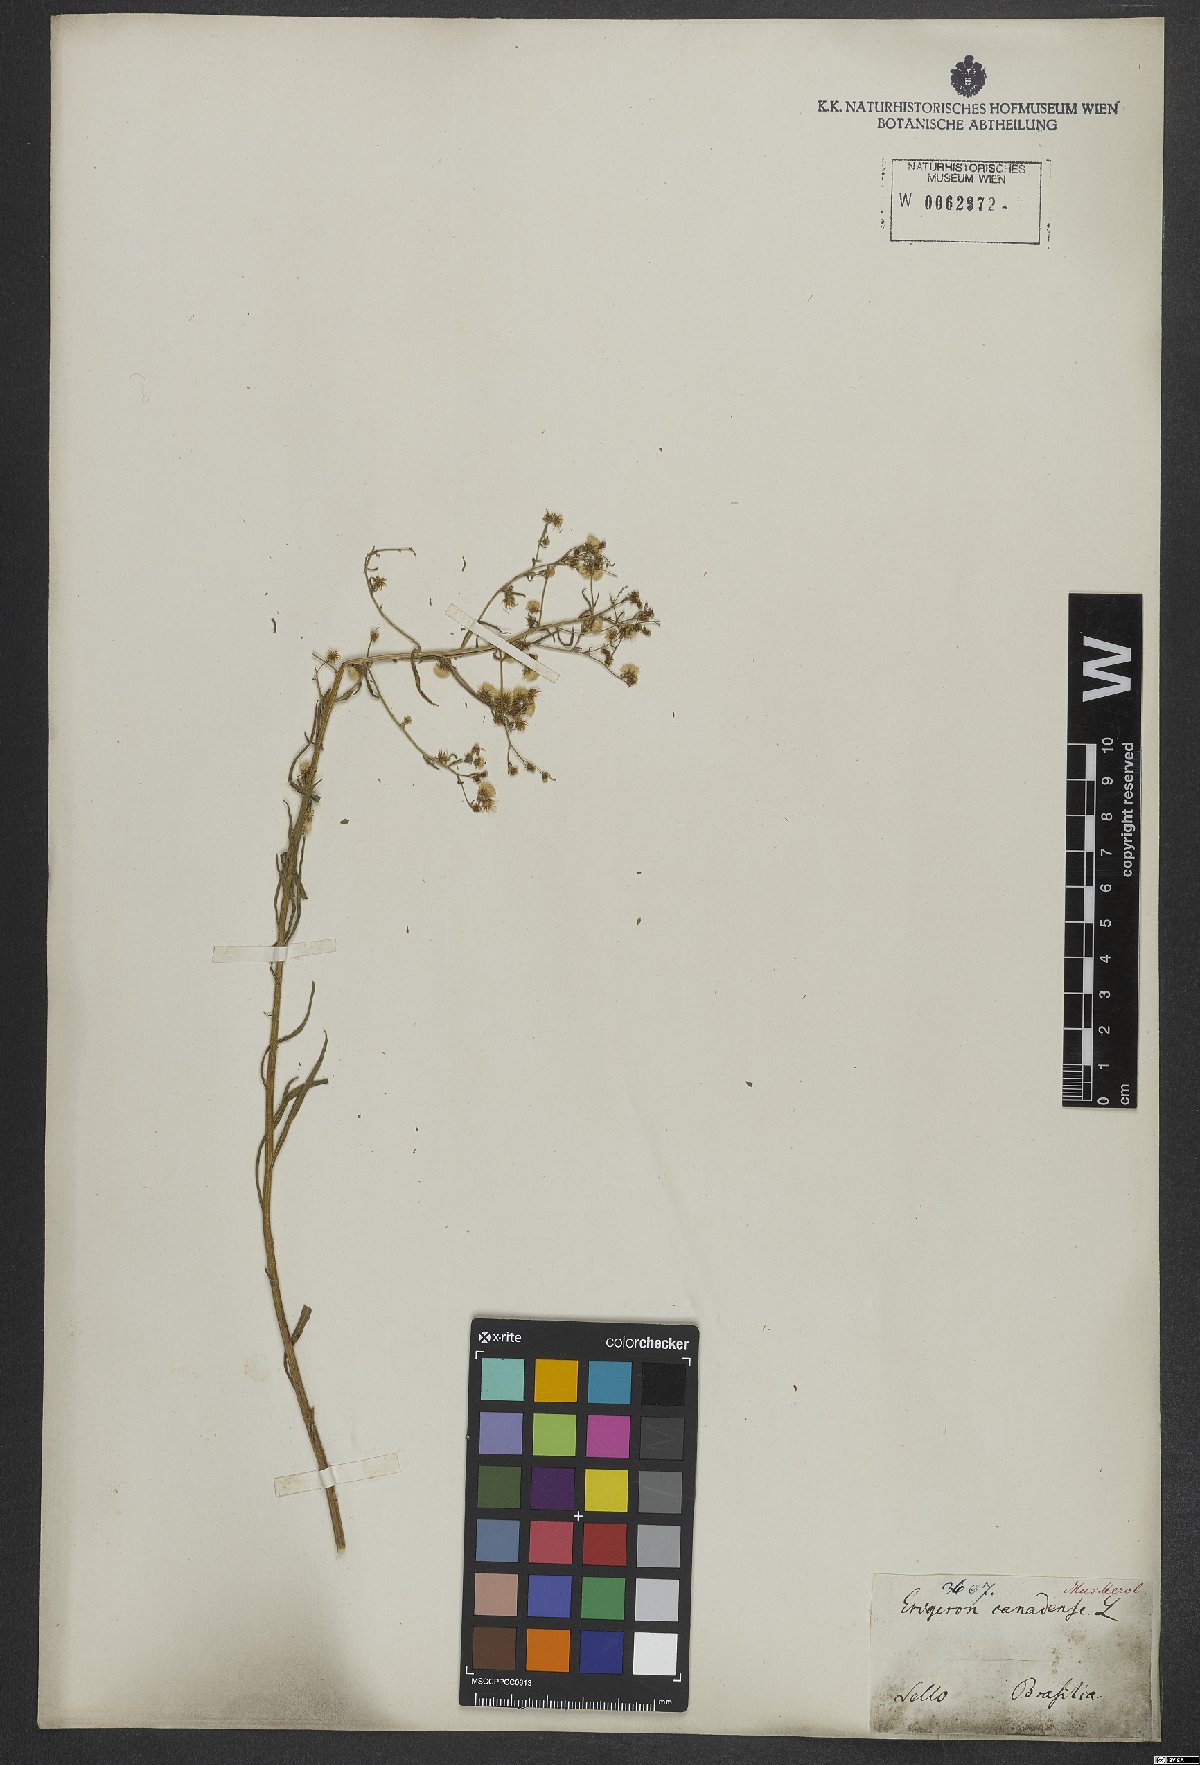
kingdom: Plantae
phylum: Tracheophyta
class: Magnoliopsida
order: Asterales
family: Asteraceae
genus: Erigeron
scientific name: Erigeron canadensis
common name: Canadian fleabane
